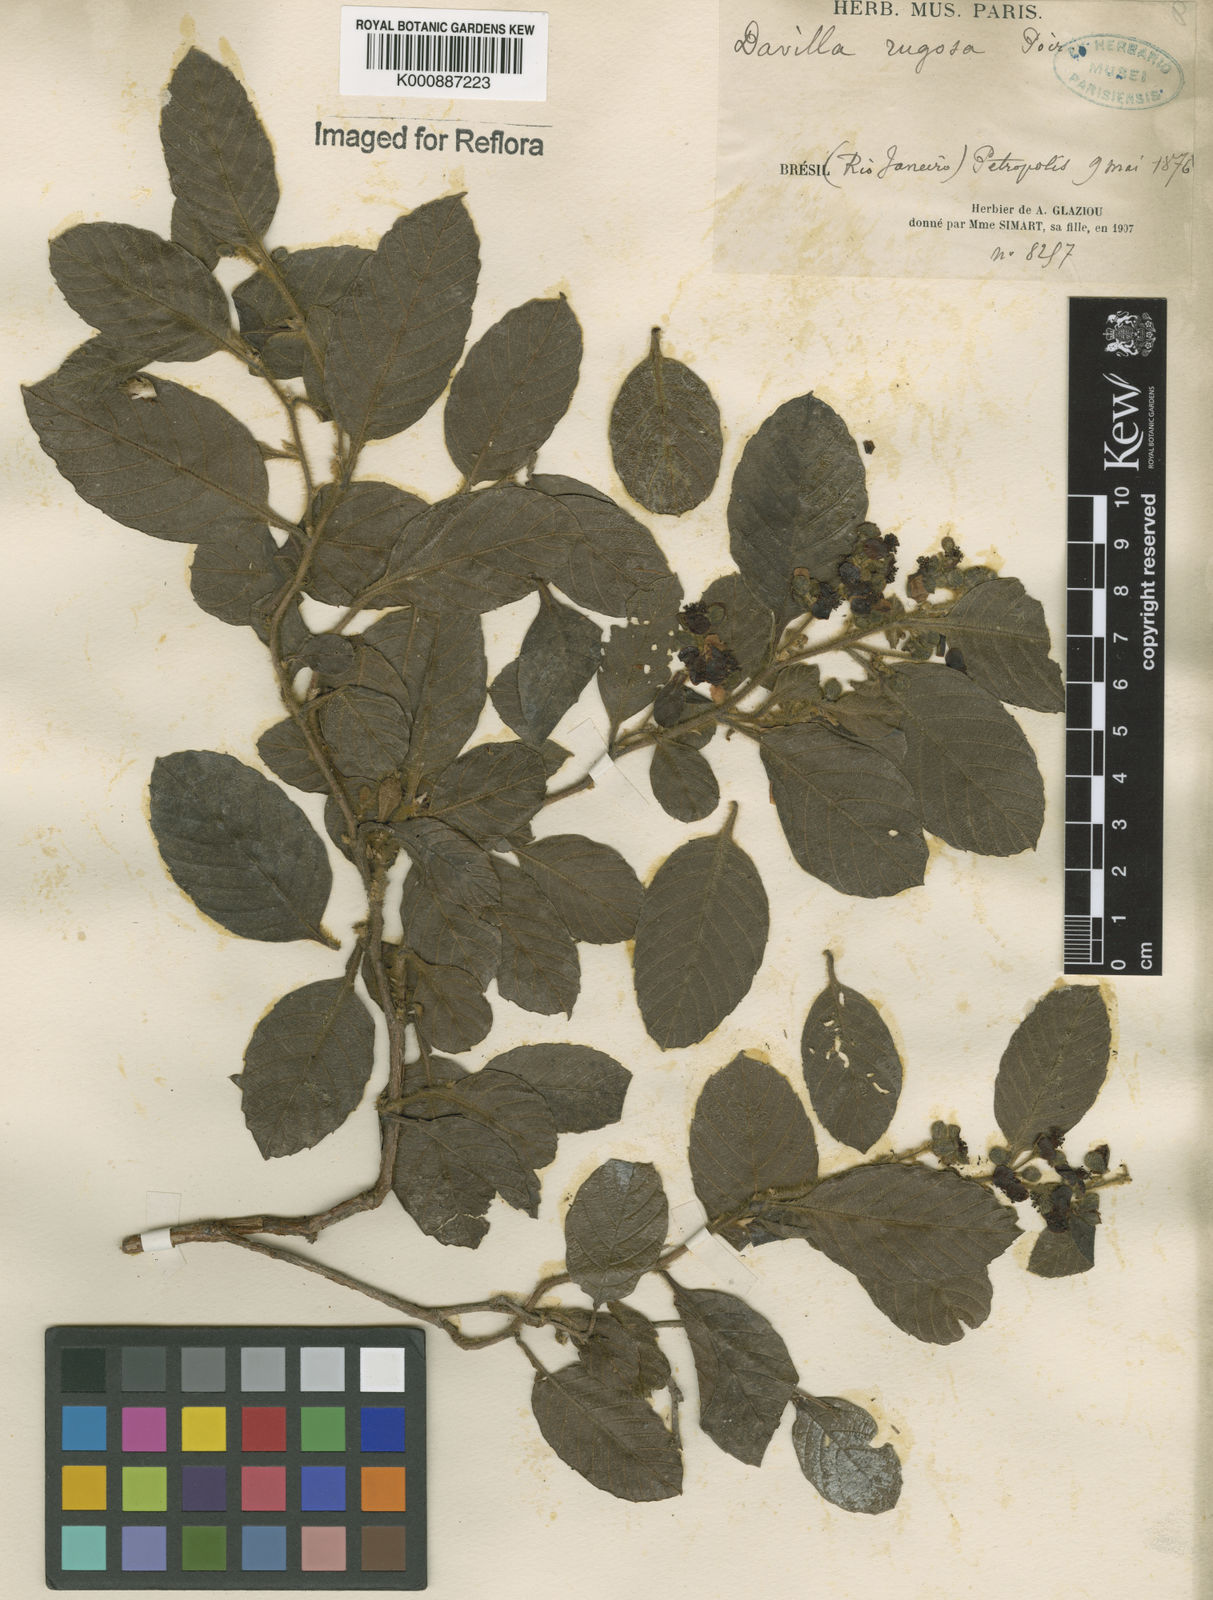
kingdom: Plantae
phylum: Tracheophyta
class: Magnoliopsida
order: Dilleniales
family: Dilleniaceae
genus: Davilla
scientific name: Davilla rugosa
